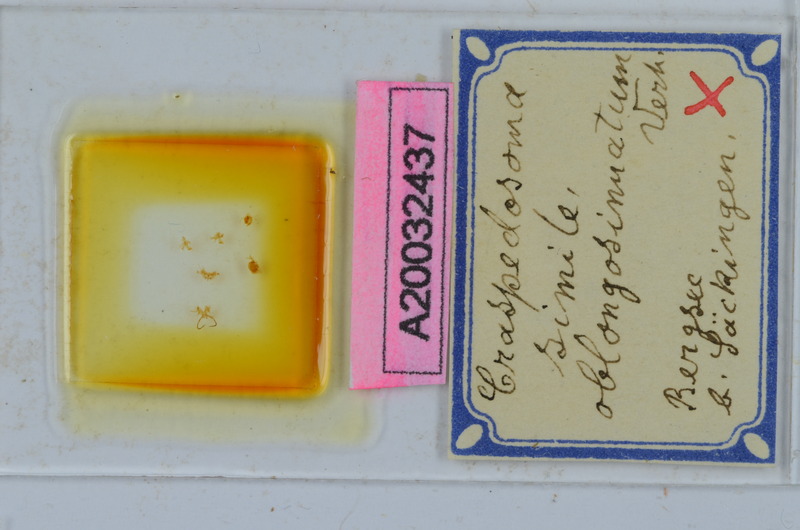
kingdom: Animalia
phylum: Arthropoda
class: Diplopoda
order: Chordeumatida
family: Craspedosomatidae
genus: Craspedosoma
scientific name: Craspedosoma rawlinsii
